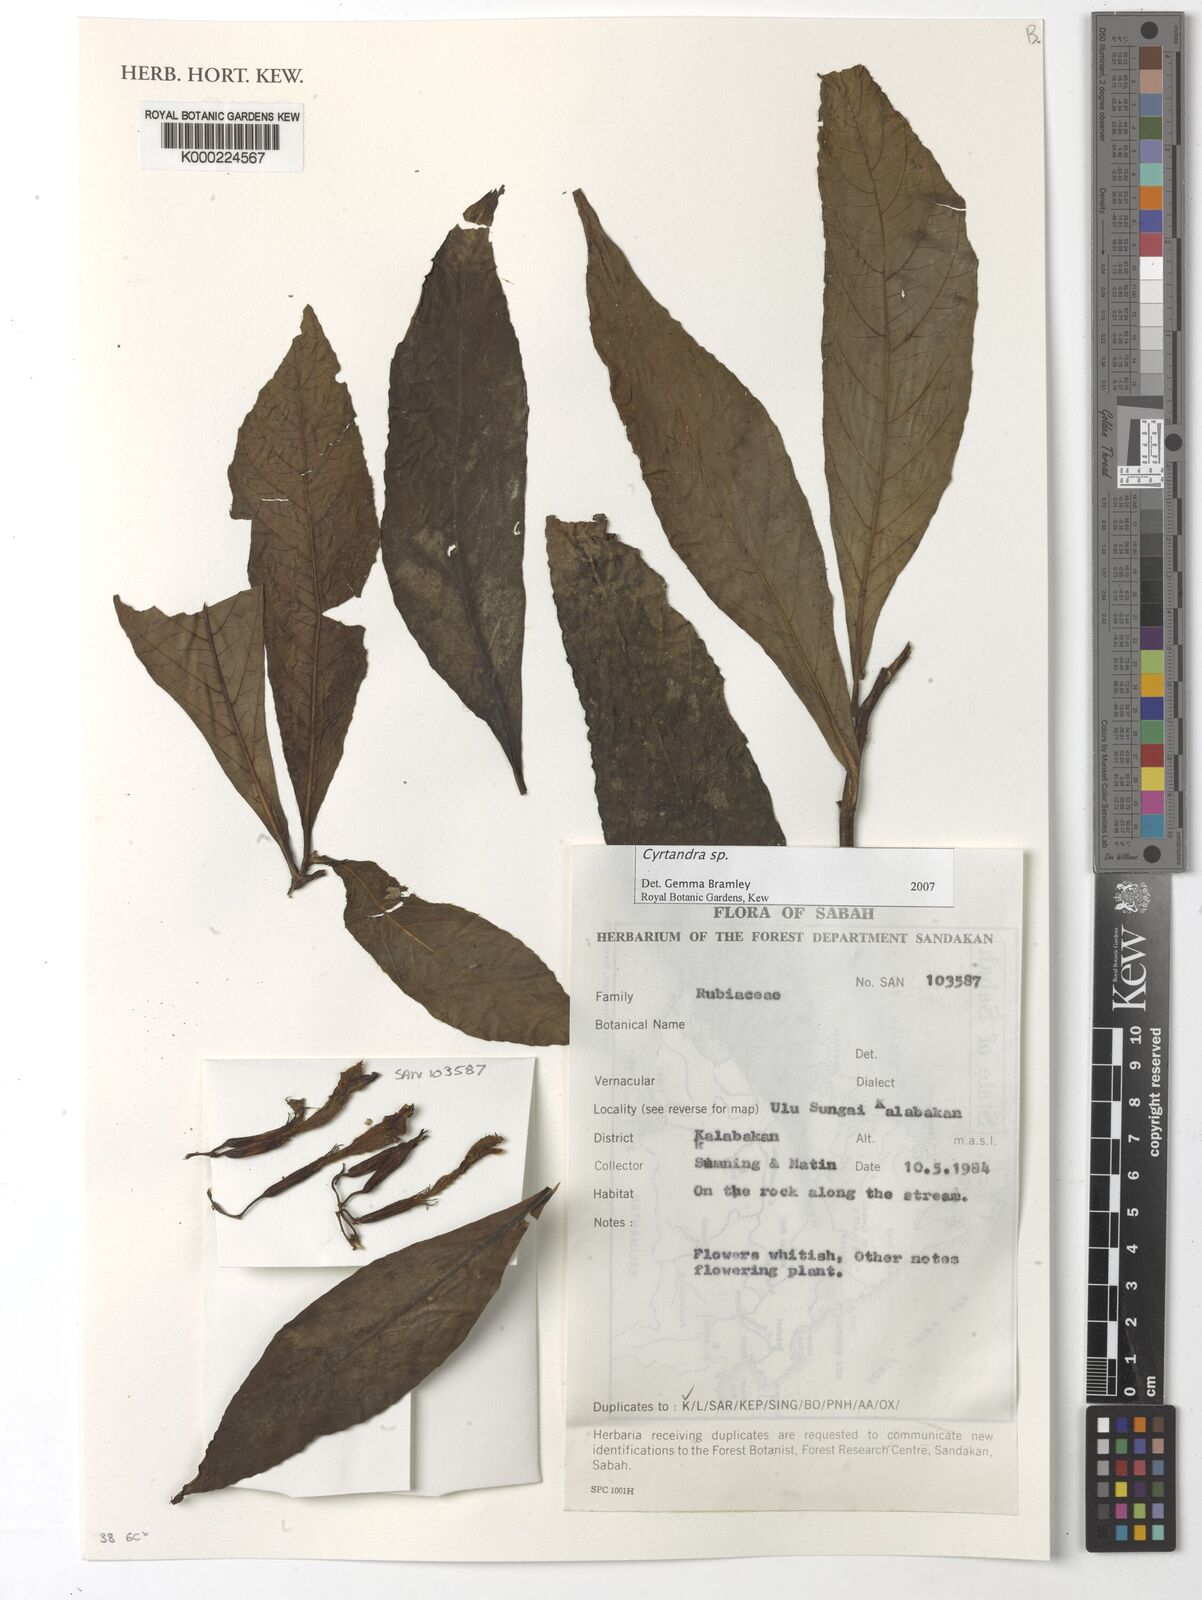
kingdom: Plantae
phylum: Tracheophyta
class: Magnoliopsida
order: Lamiales
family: Gesneriaceae
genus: Cyrtandra
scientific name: Cyrtandra
